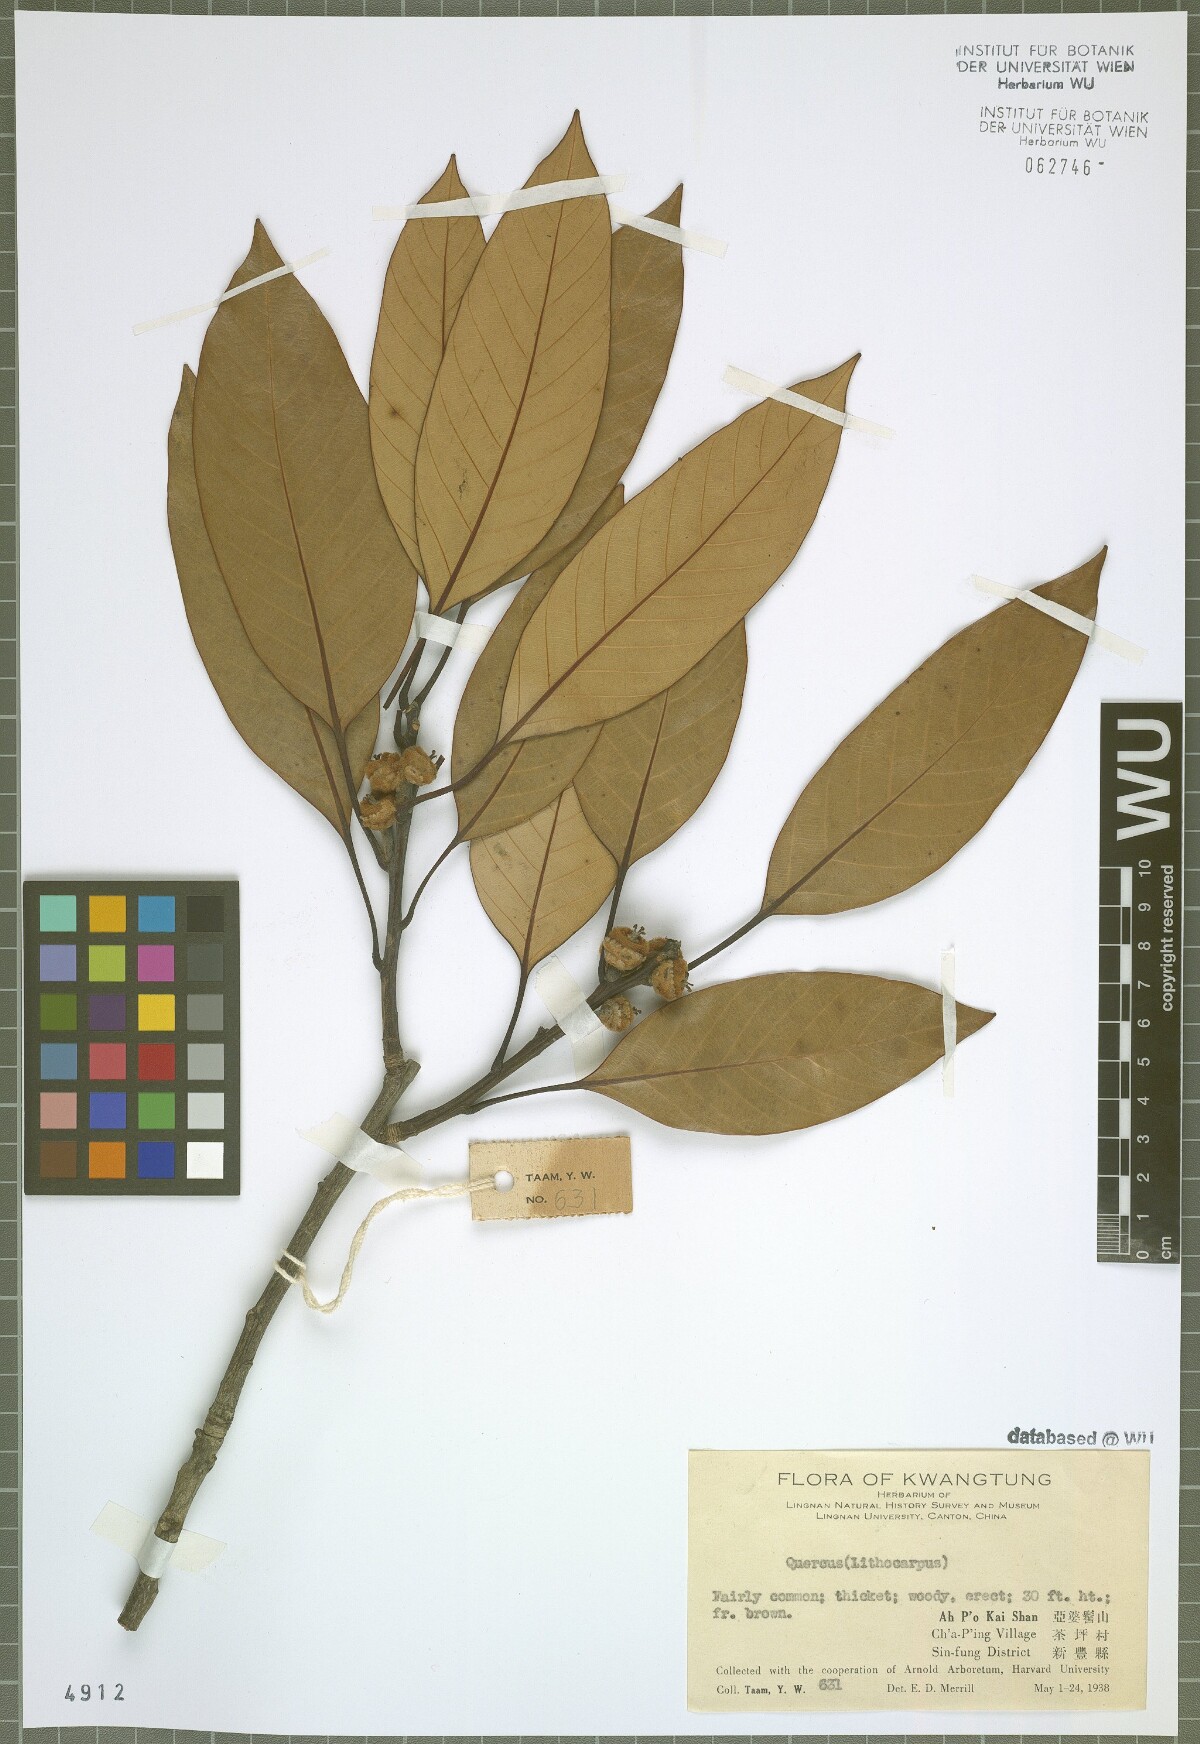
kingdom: Plantae
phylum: Tracheophyta
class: Magnoliopsida
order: Fagales
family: Fagaceae
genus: Quercus
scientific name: Quercus
